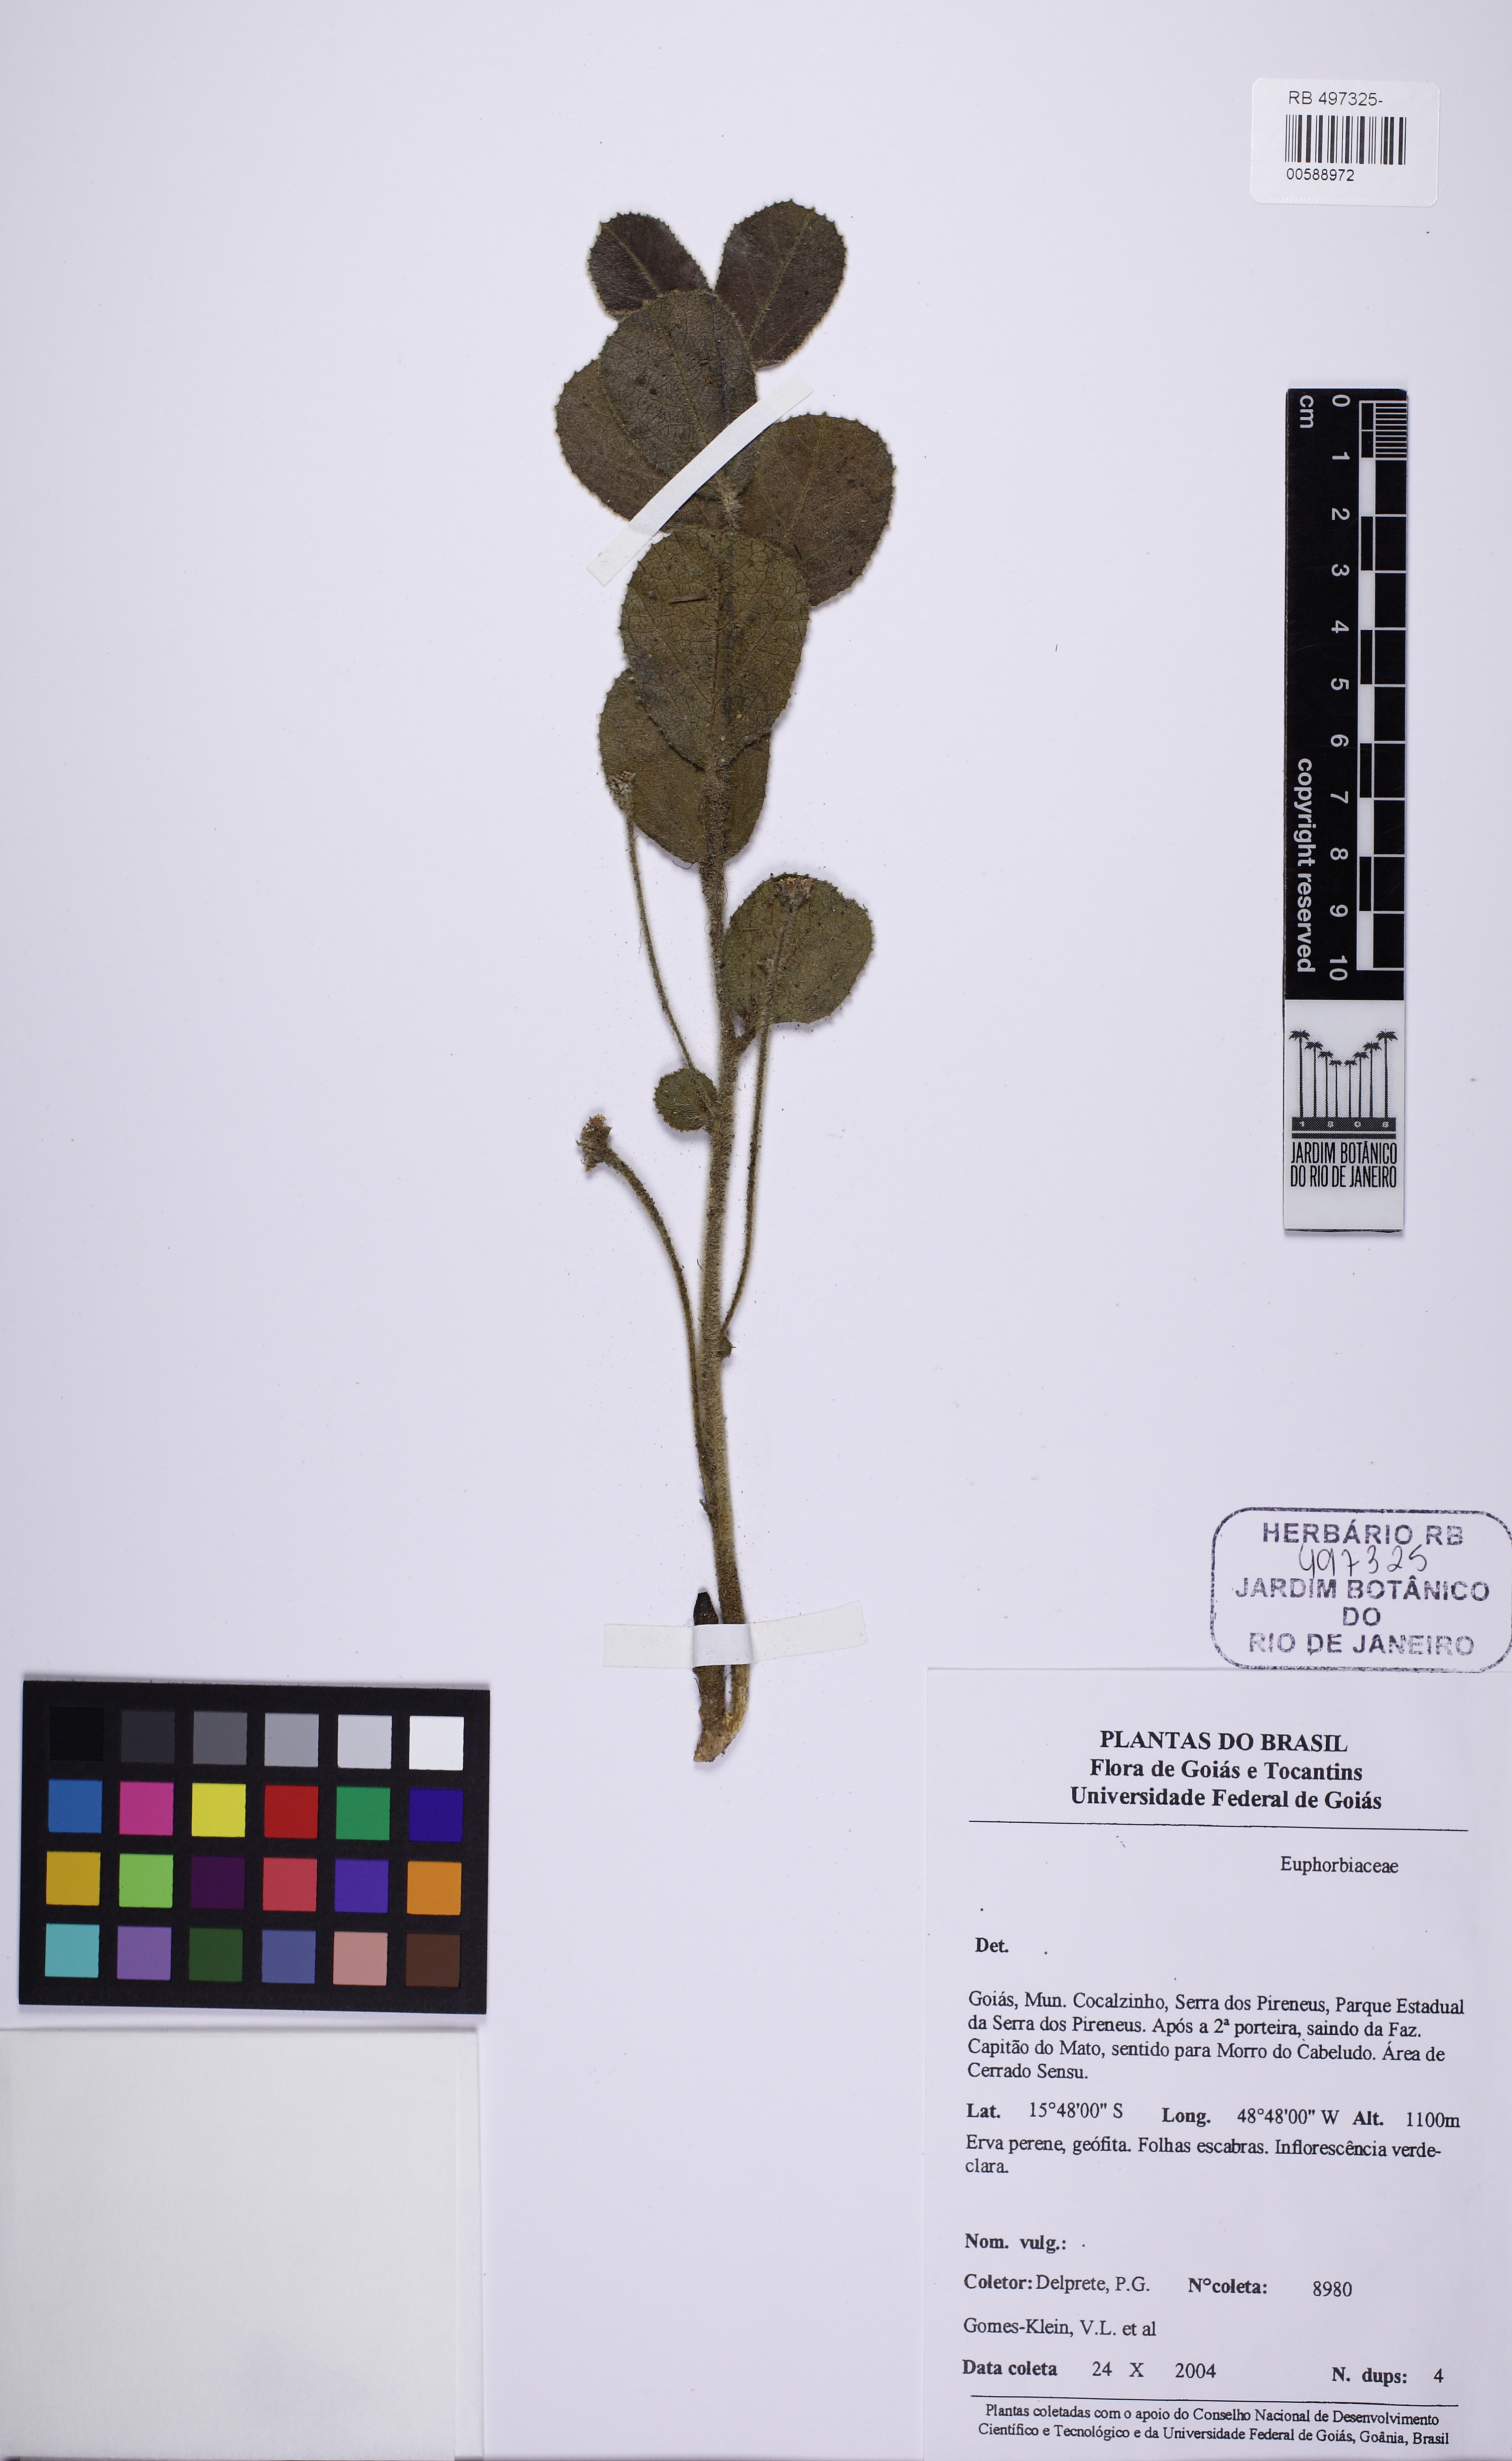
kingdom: Plantae
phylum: Tracheophyta
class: Magnoliopsida
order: Malpighiales
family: Euphorbiaceae
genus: Ditaxis
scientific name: Ditaxis
